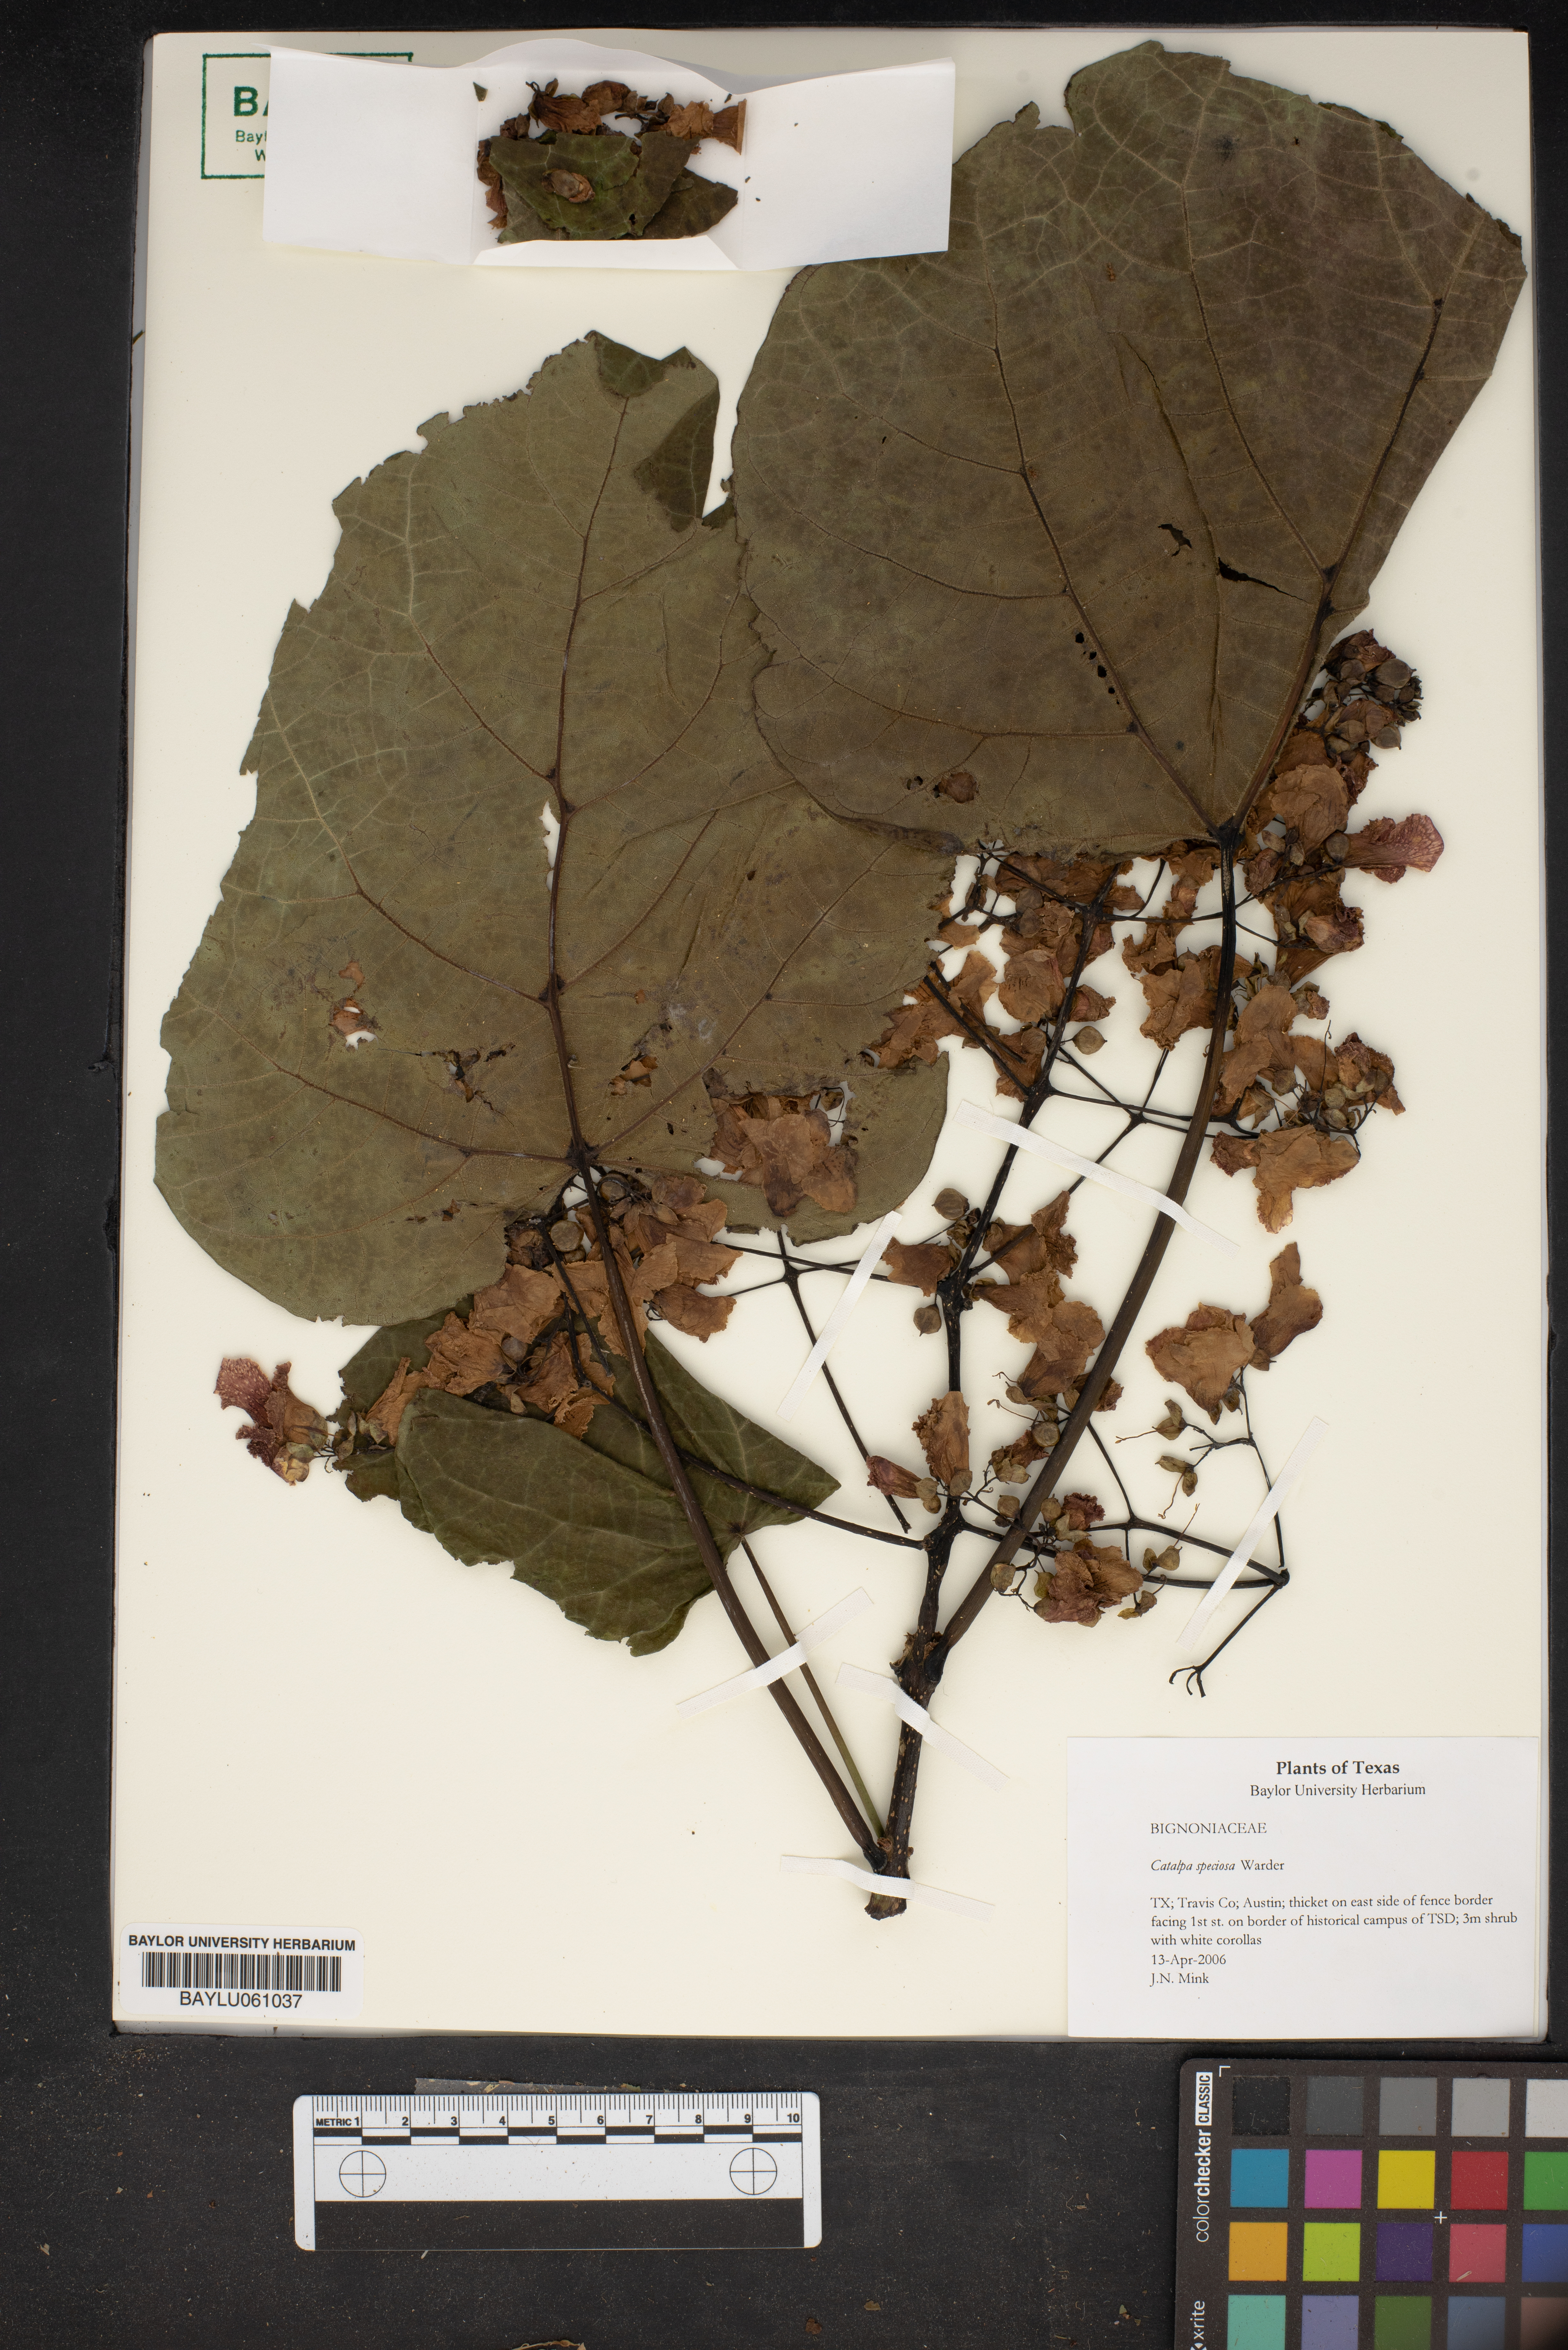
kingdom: Plantae
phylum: Tracheophyta
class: Magnoliopsida
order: Lamiales
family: Bignoniaceae
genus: Catalpa
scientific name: Catalpa speciosa
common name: Northern catalpa
